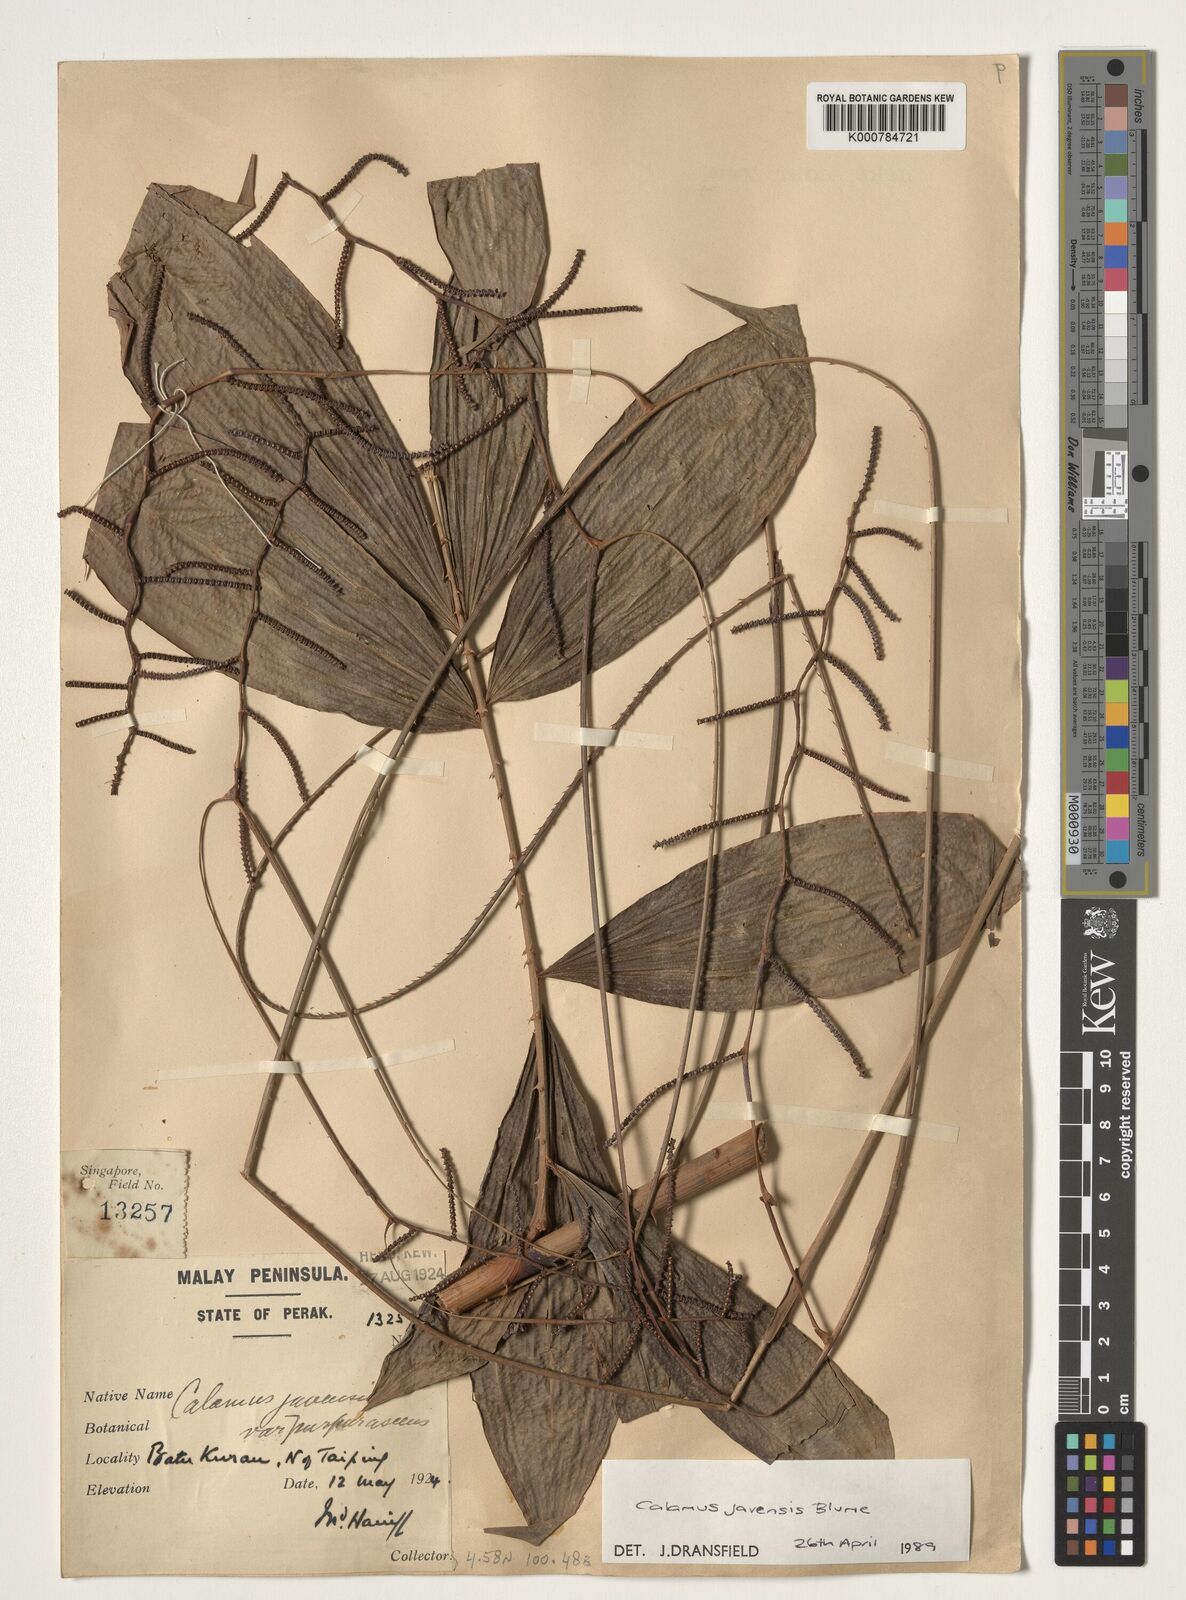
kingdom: Plantae
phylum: Tracheophyta
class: Liliopsida
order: Arecales
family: Arecaceae
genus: Calamus
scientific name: Calamus javensis
